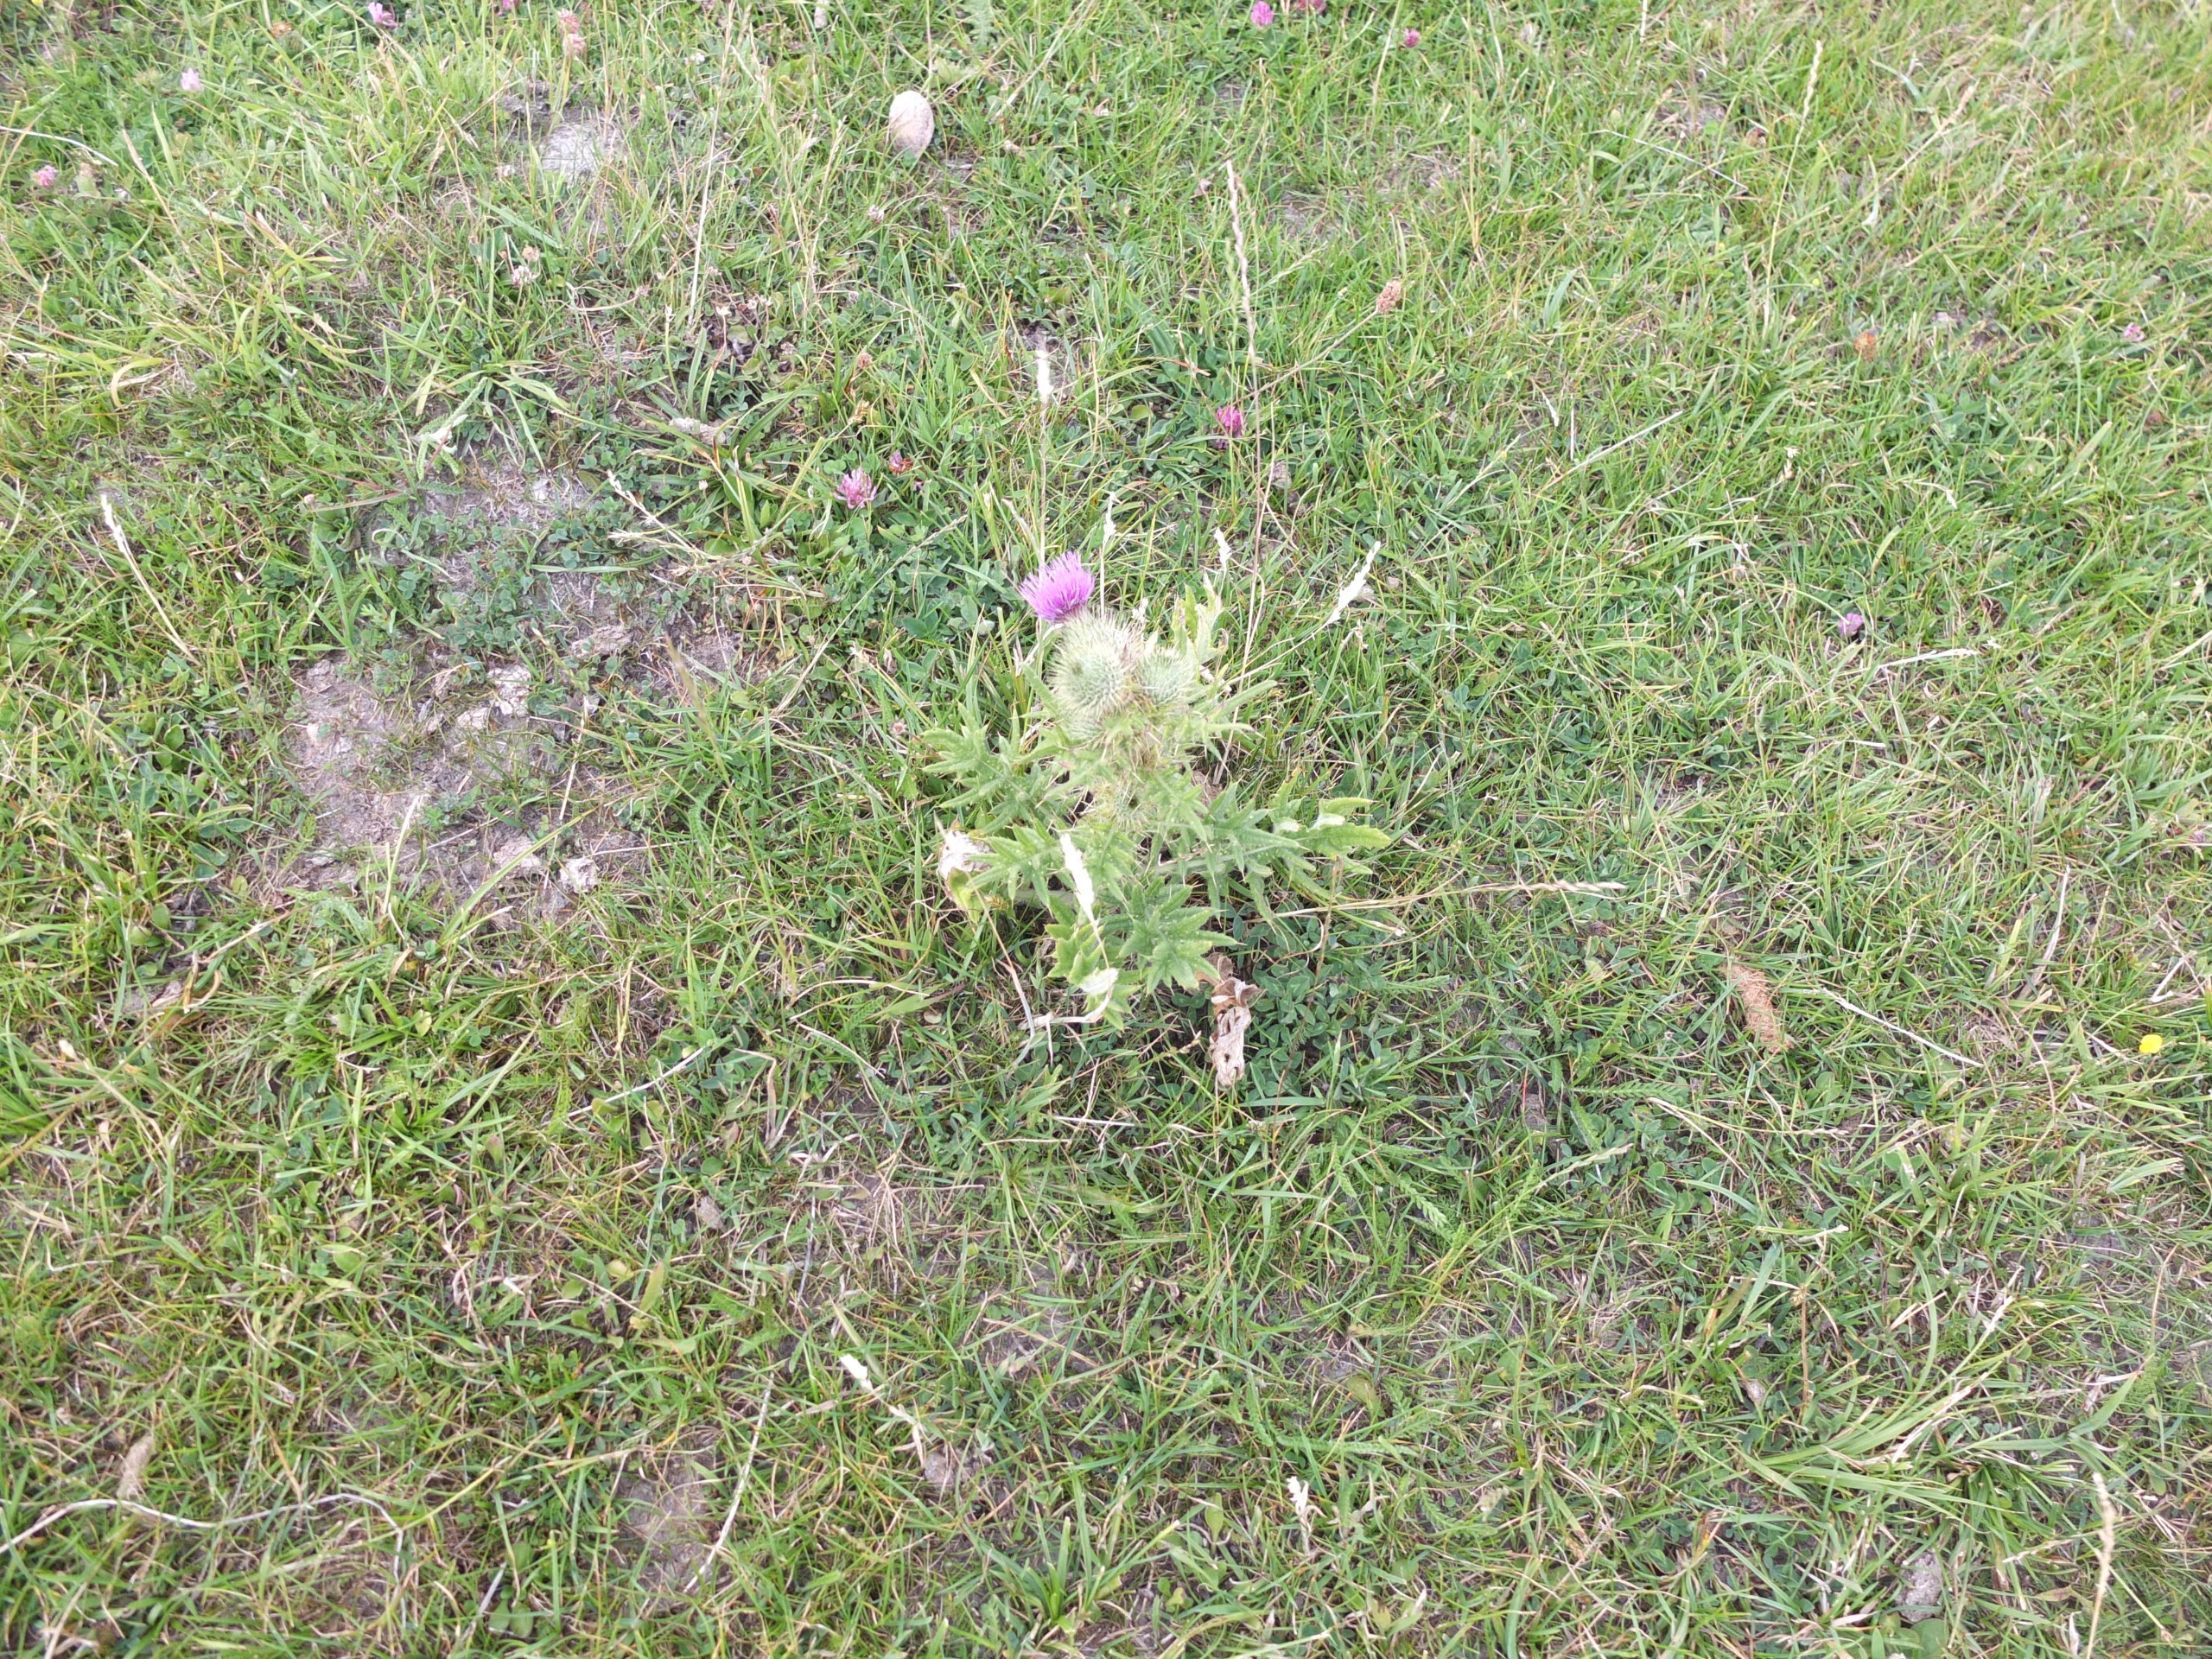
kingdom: Plantae
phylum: Tracheophyta
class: Magnoliopsida
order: Asterales
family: Asteraceae
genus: Cirsium
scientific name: Cirsium vulgare
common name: Horse-tidsel
